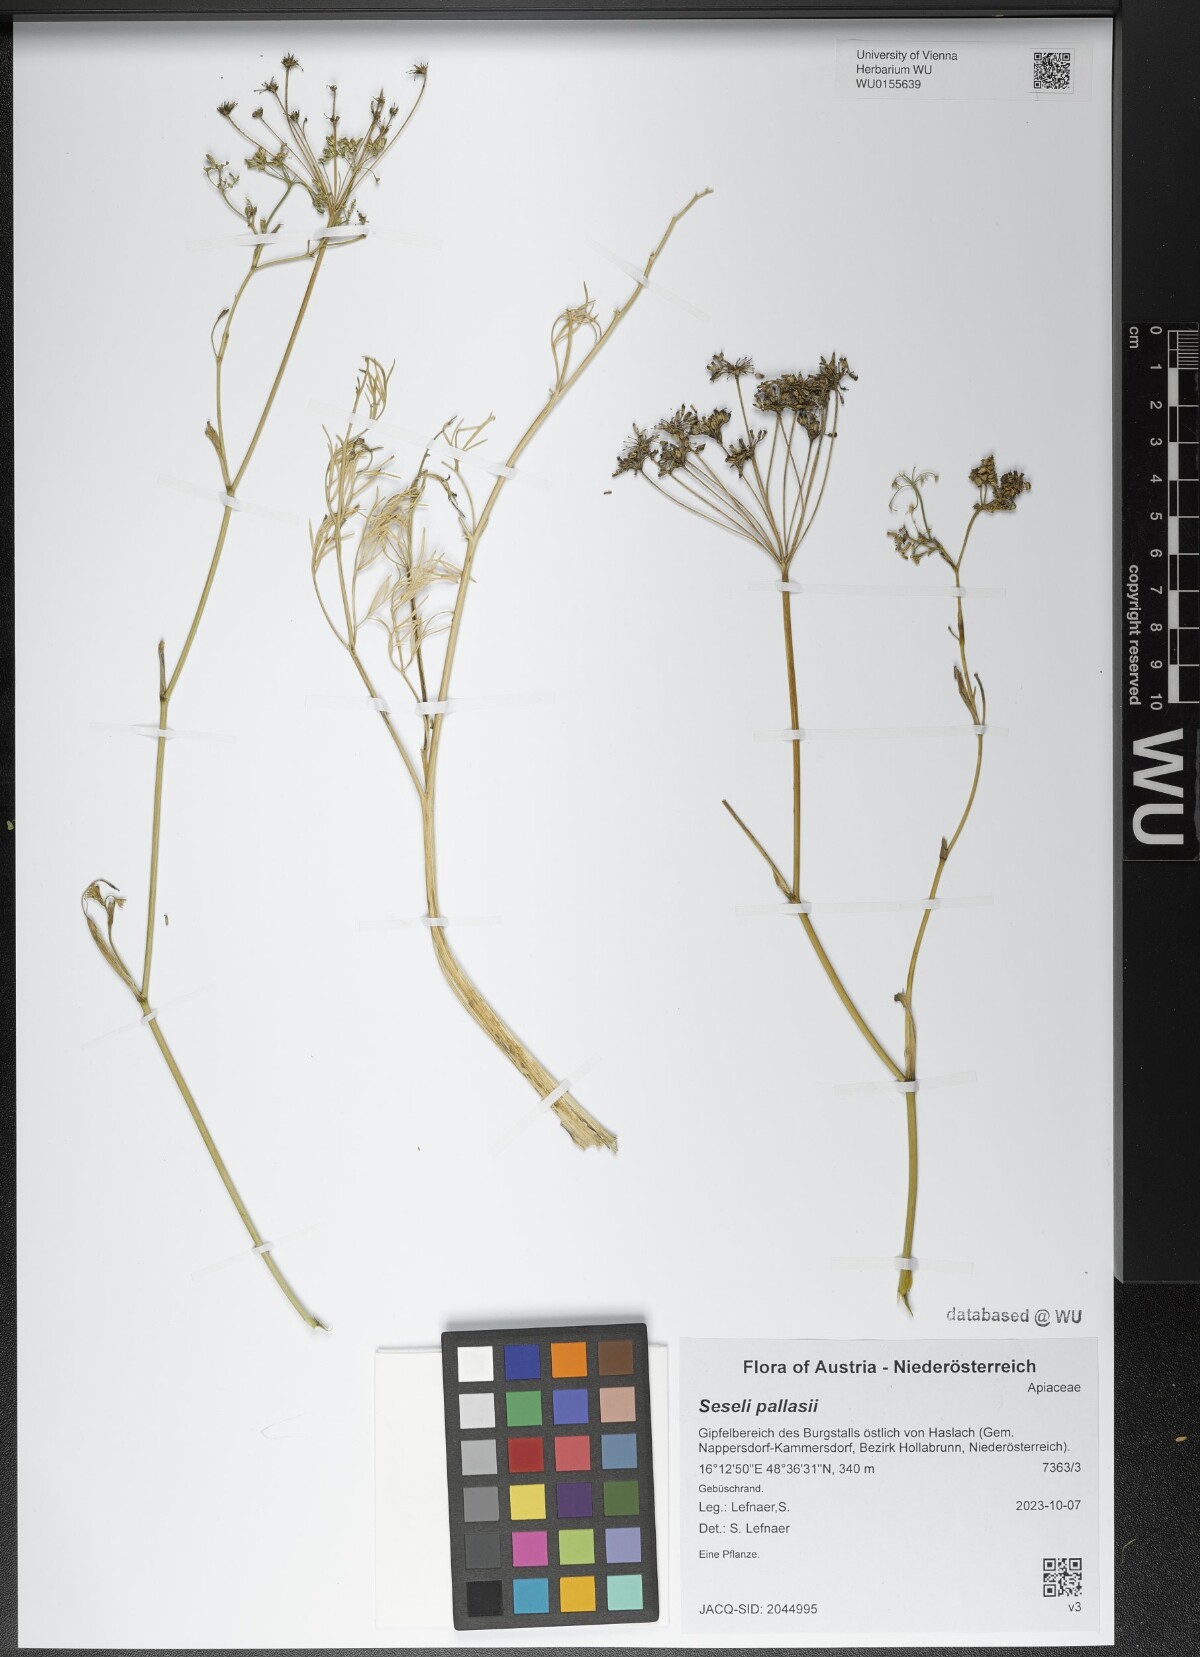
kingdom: Plantae
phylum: Tracheophyta
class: Magnoliopsida
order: Apiales
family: Apiaceae
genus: Seseli
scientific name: Seseli pallasii
